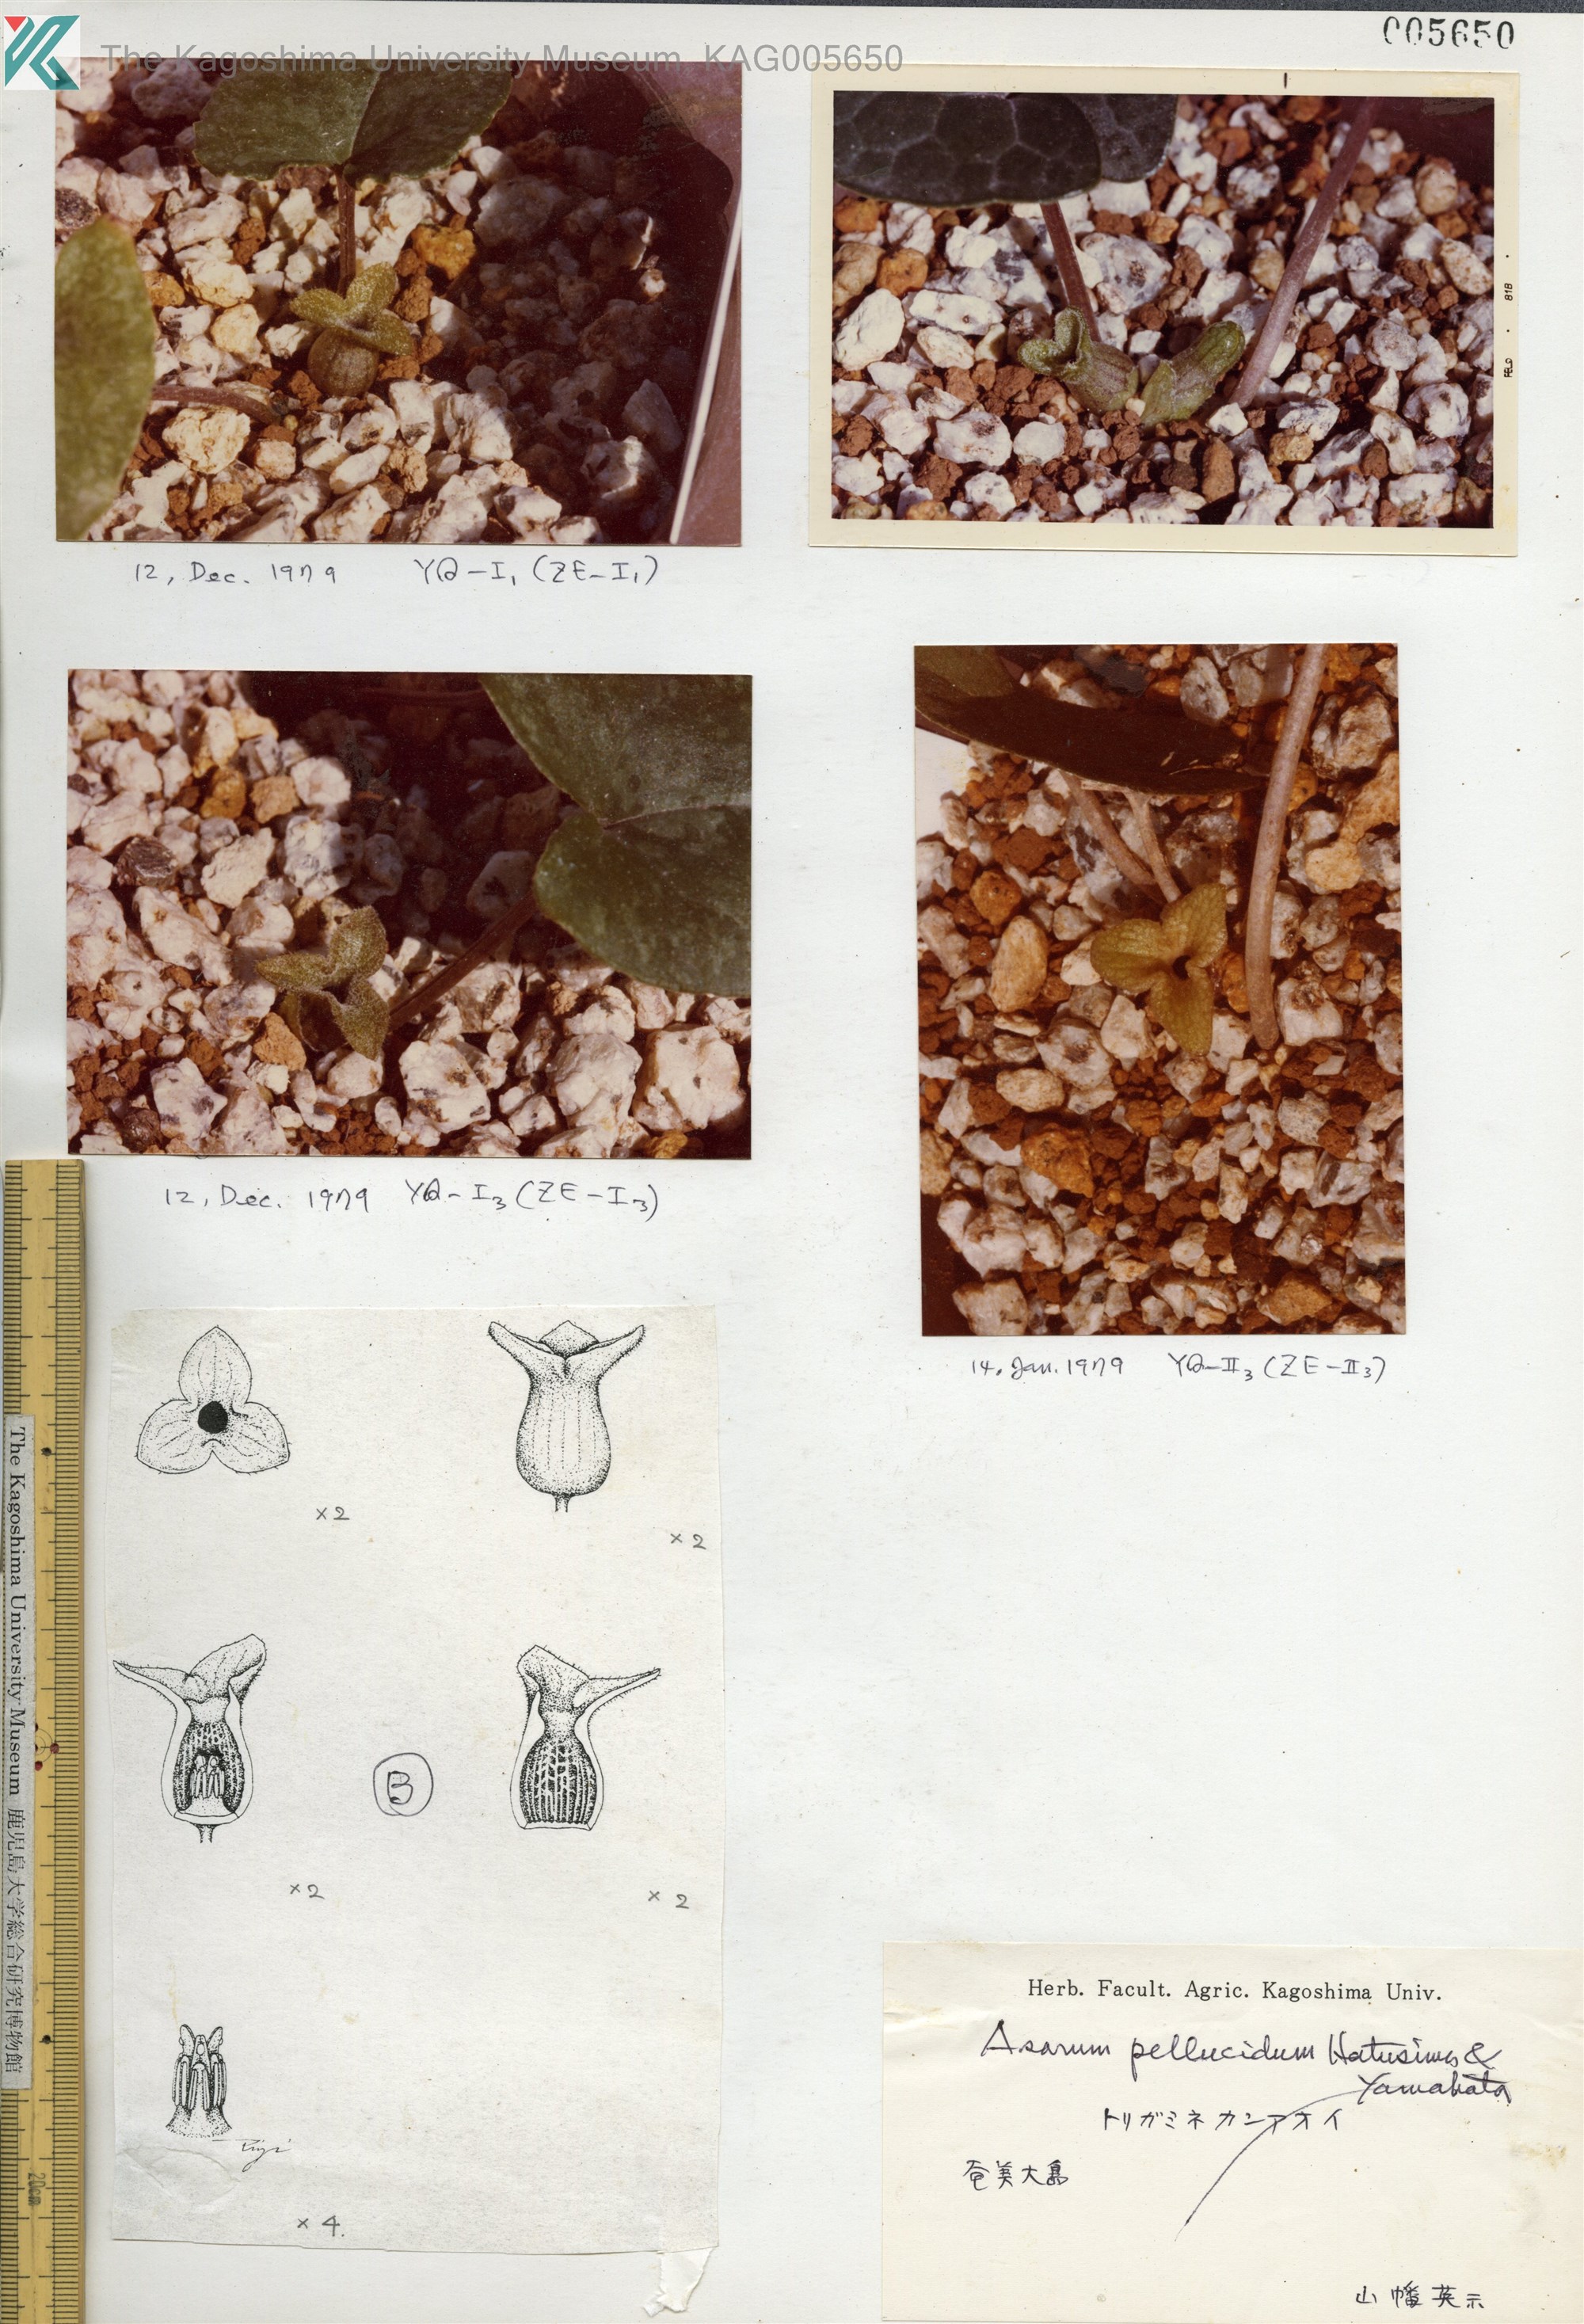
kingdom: Plantae
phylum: Tracheophyta
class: Magnoliopsida
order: Piperales
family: Aristolochiaceae
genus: Asarum
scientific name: Asarum pellucidum
